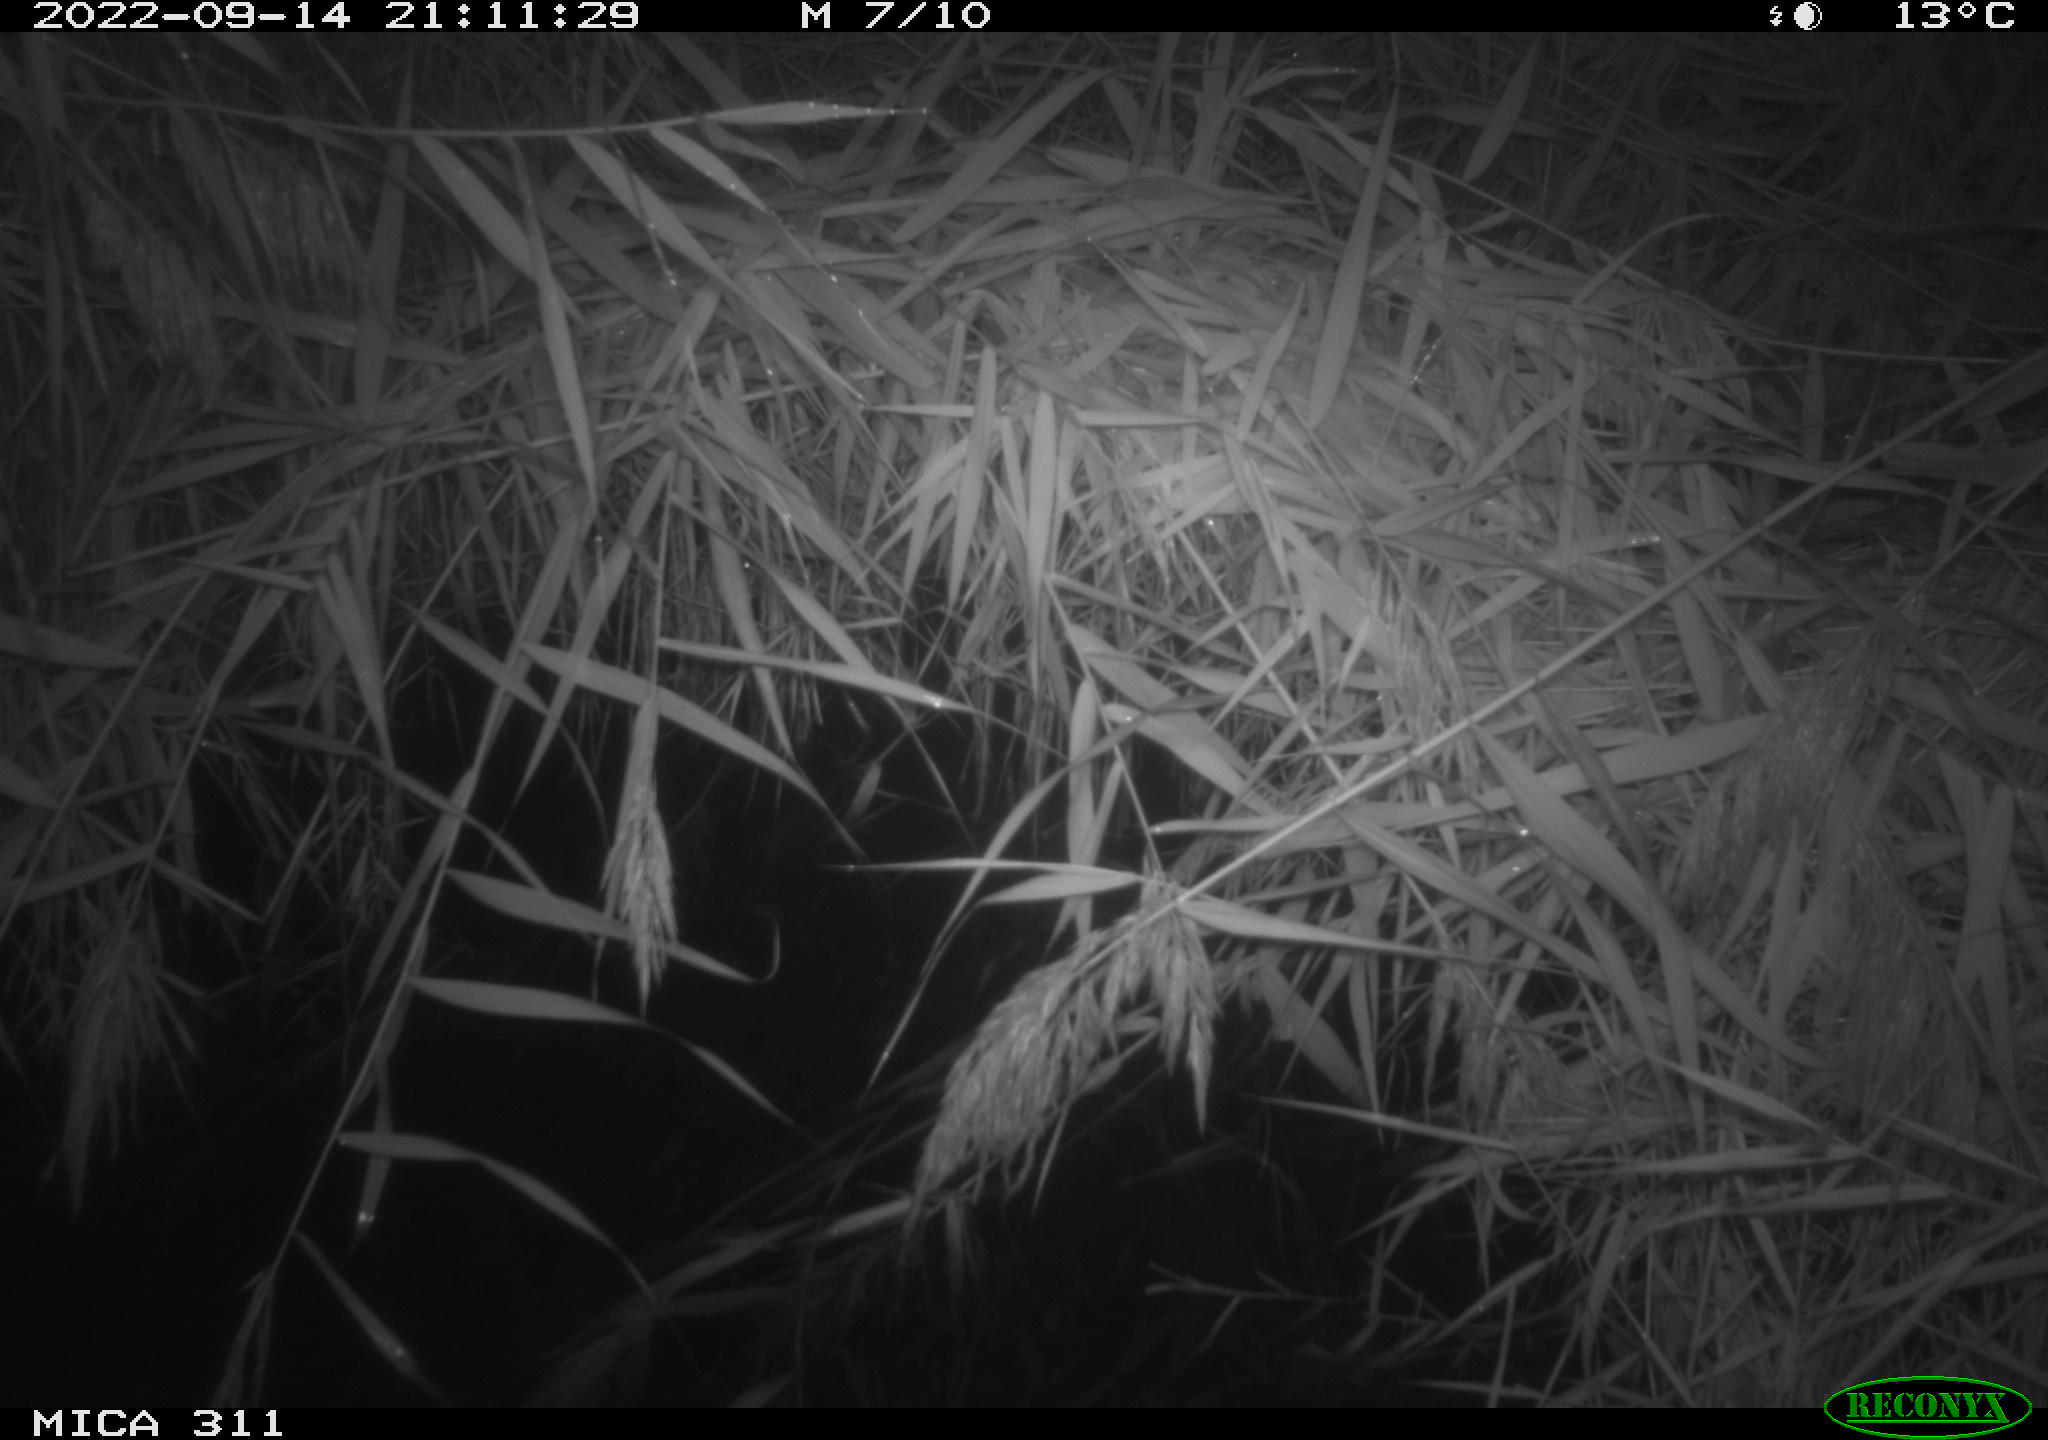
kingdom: Animalia
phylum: Chordata
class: Mammalia
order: Rodentia
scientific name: Rodentia
